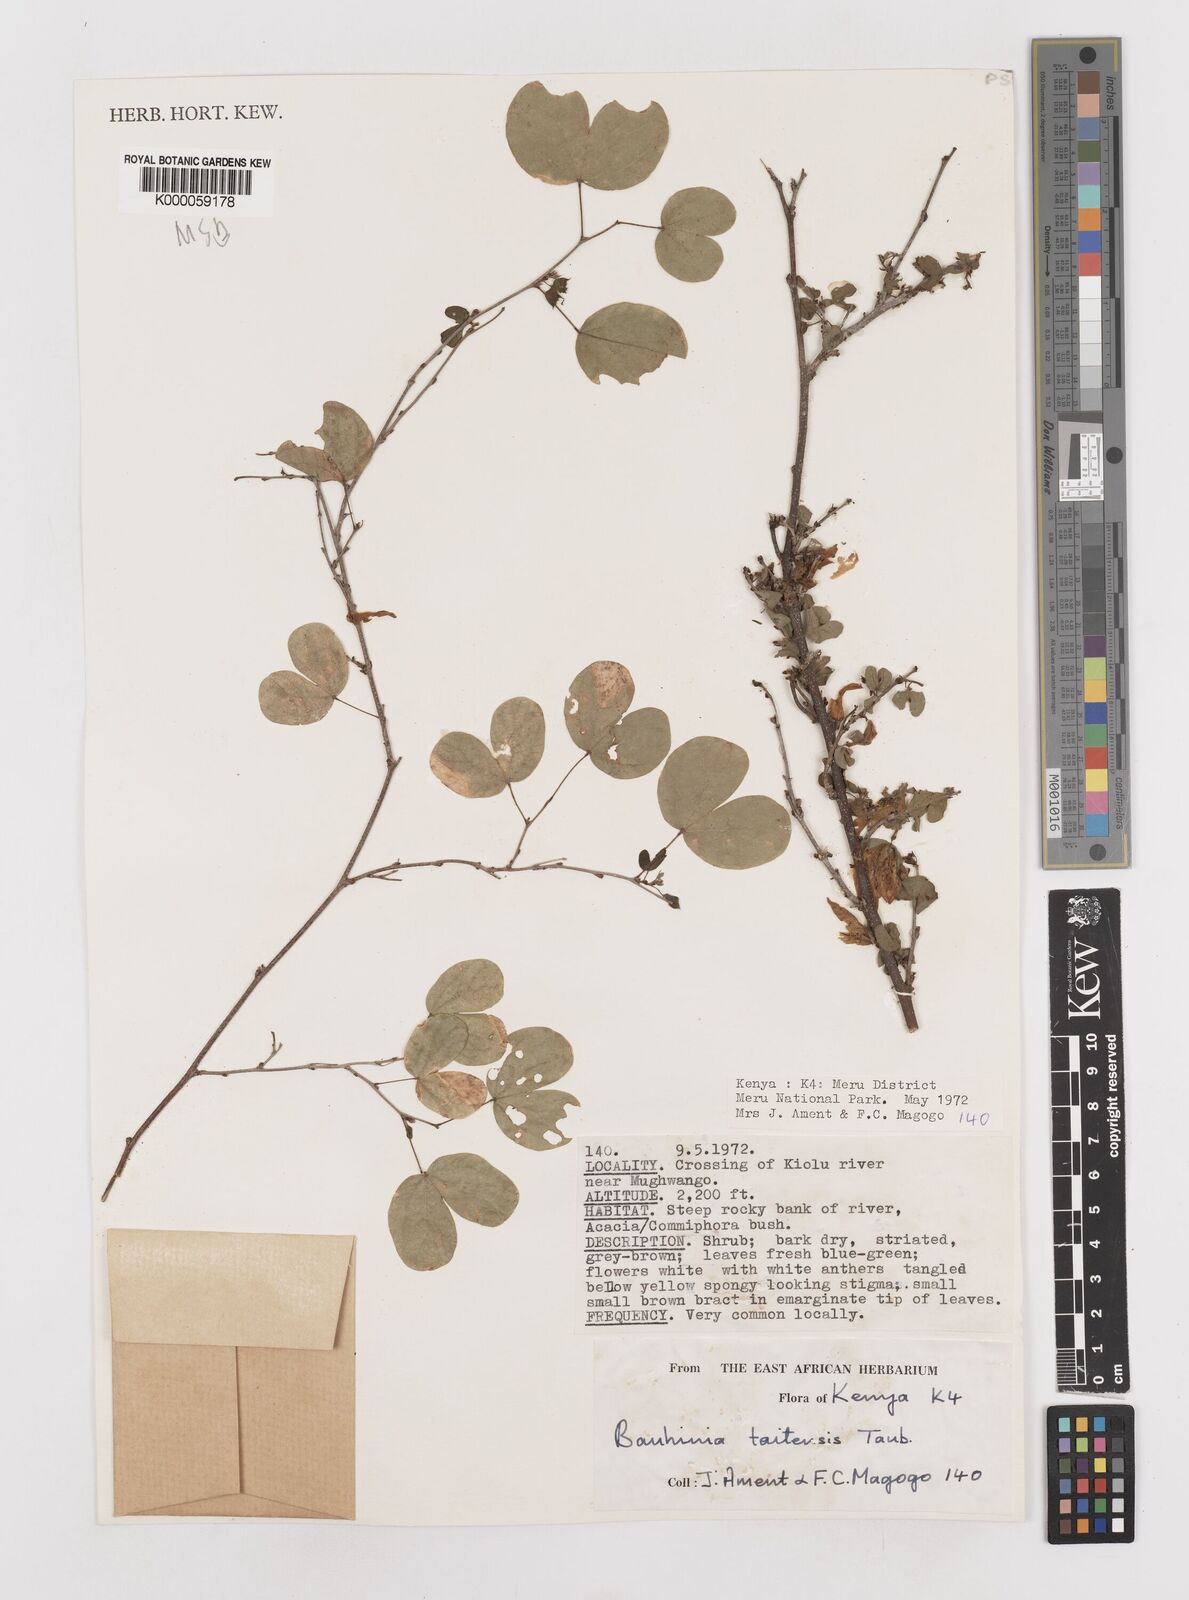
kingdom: Plantae
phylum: Tracheophyta
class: Magnoliopsida
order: Fabales
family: Fabaceae
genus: Bauhinia
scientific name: Bauhinia taitensis
